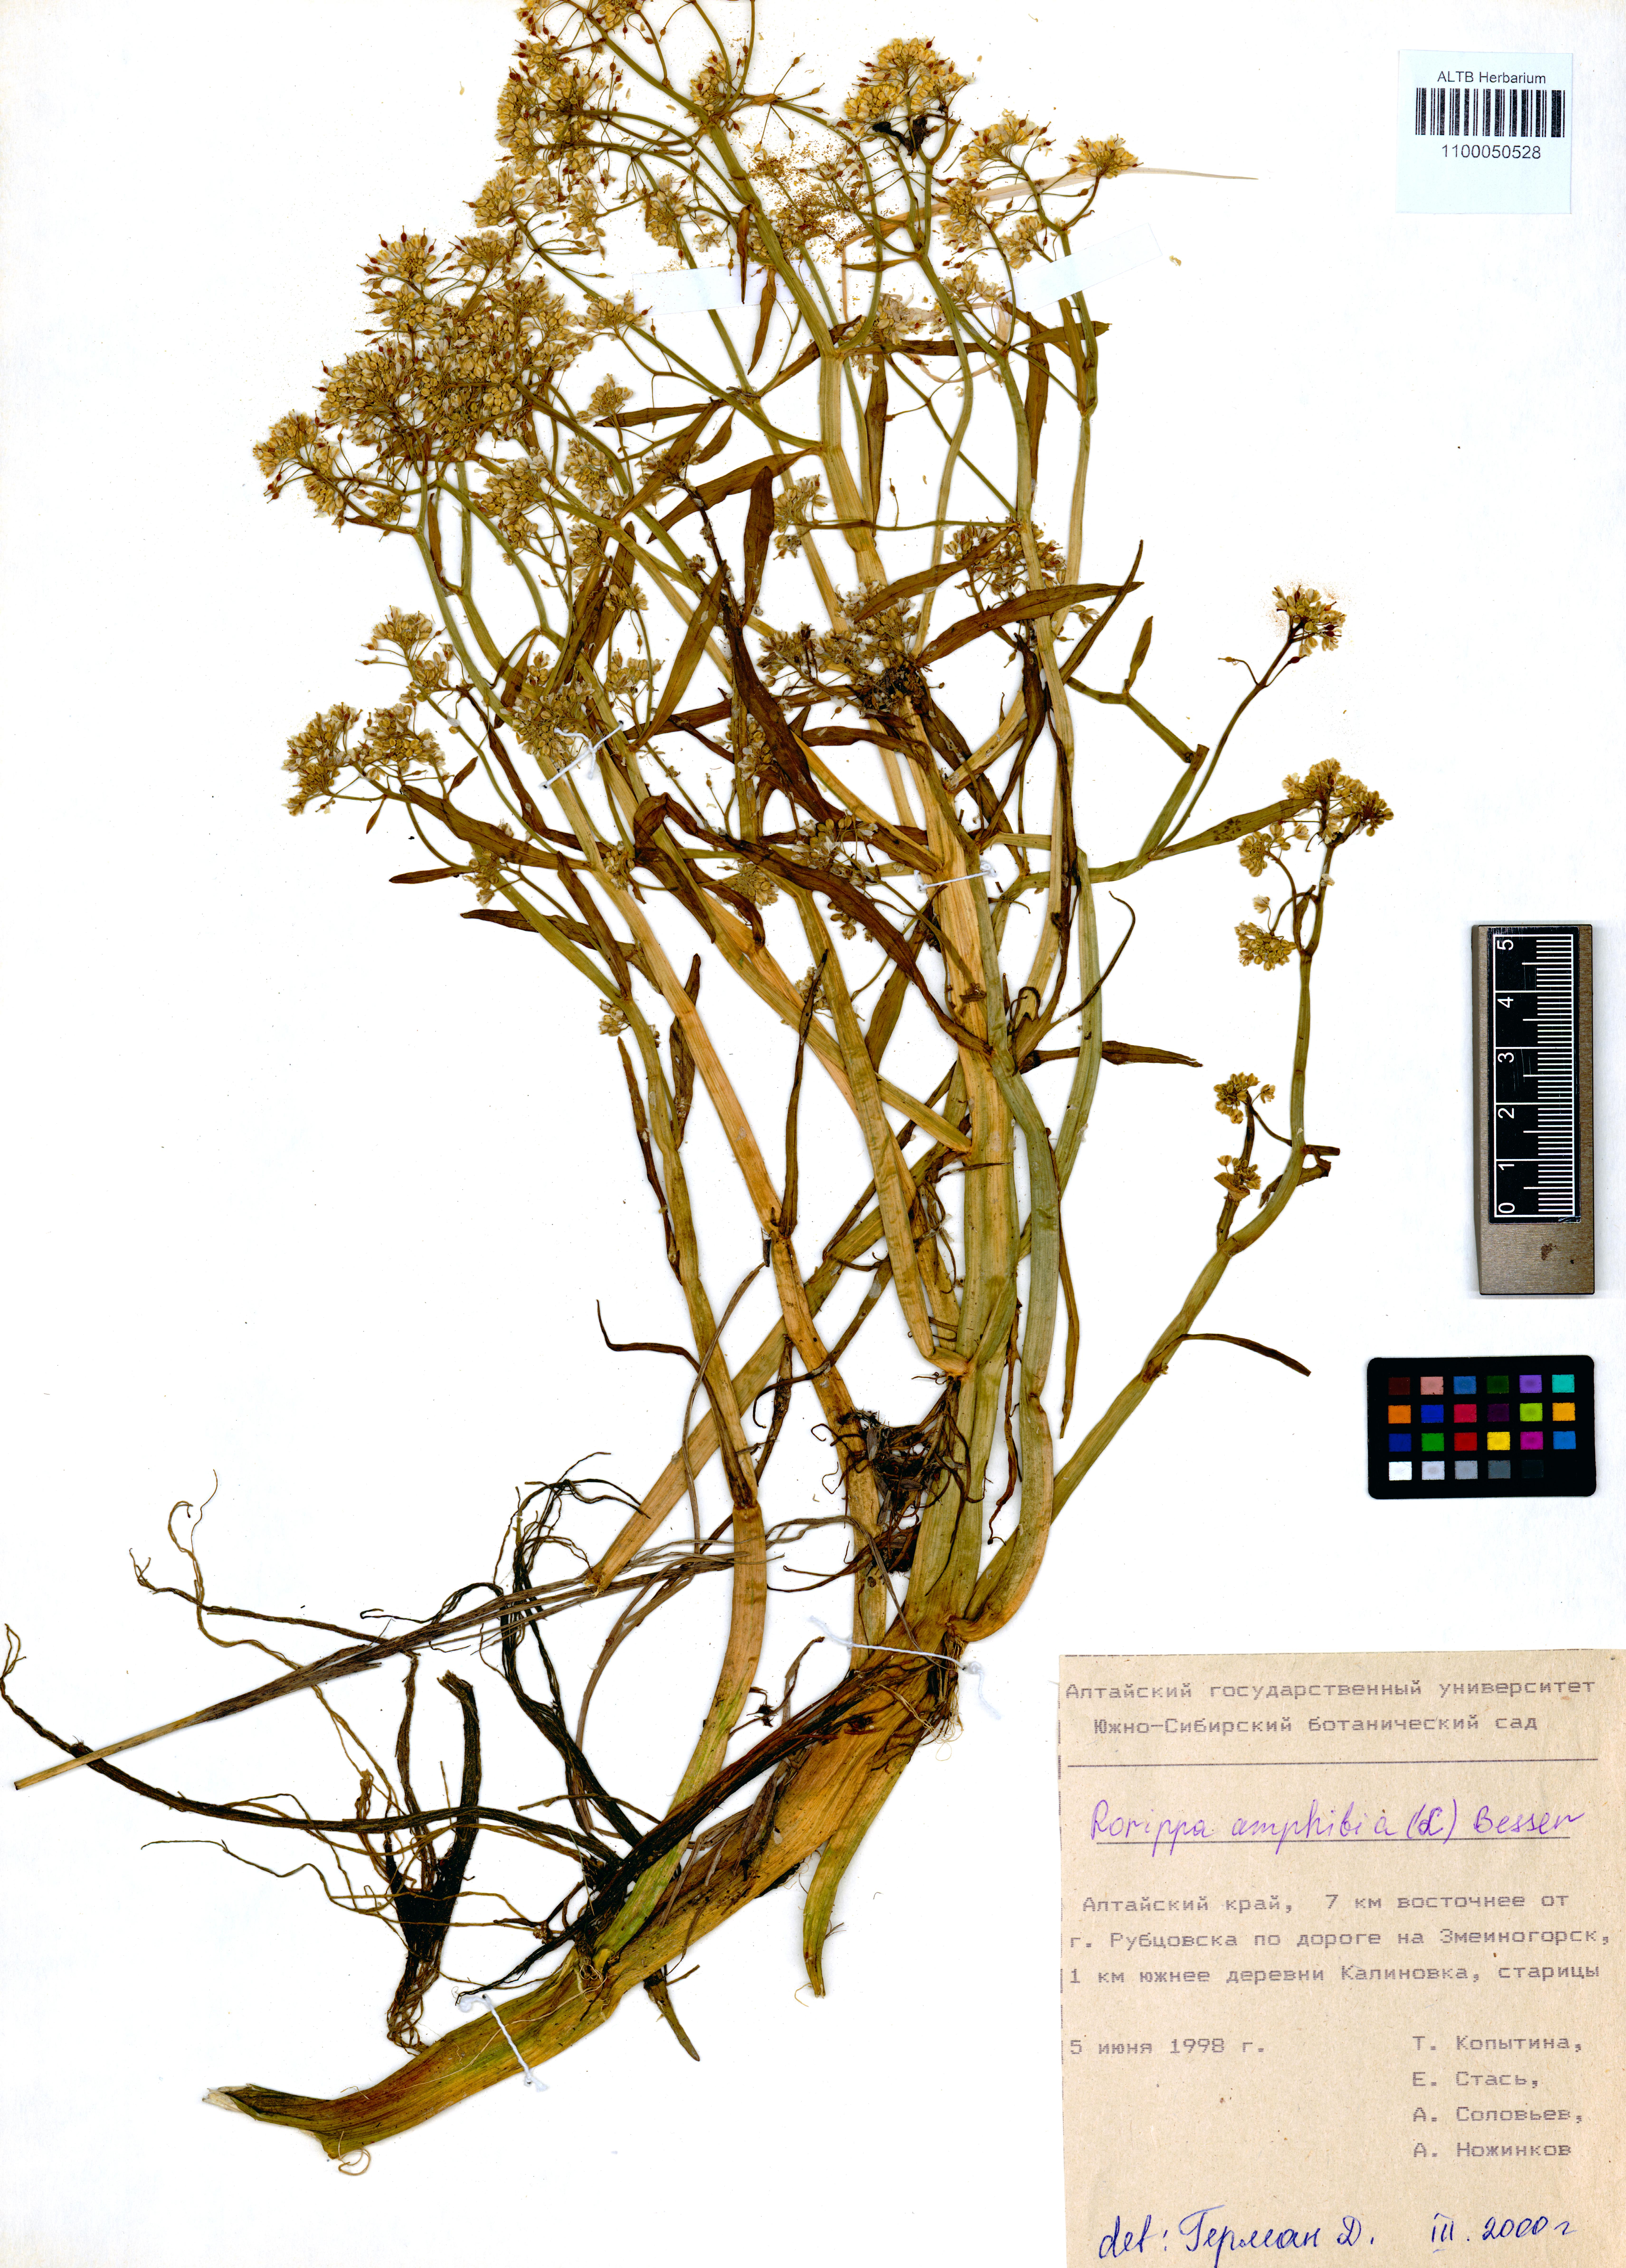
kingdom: Plantae
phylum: Tracheophyta
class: Magnoliopsida
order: Brassicales
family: Brassicaceae
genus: Rorippa
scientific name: Rorippa amphibia
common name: Great yellow-cress
